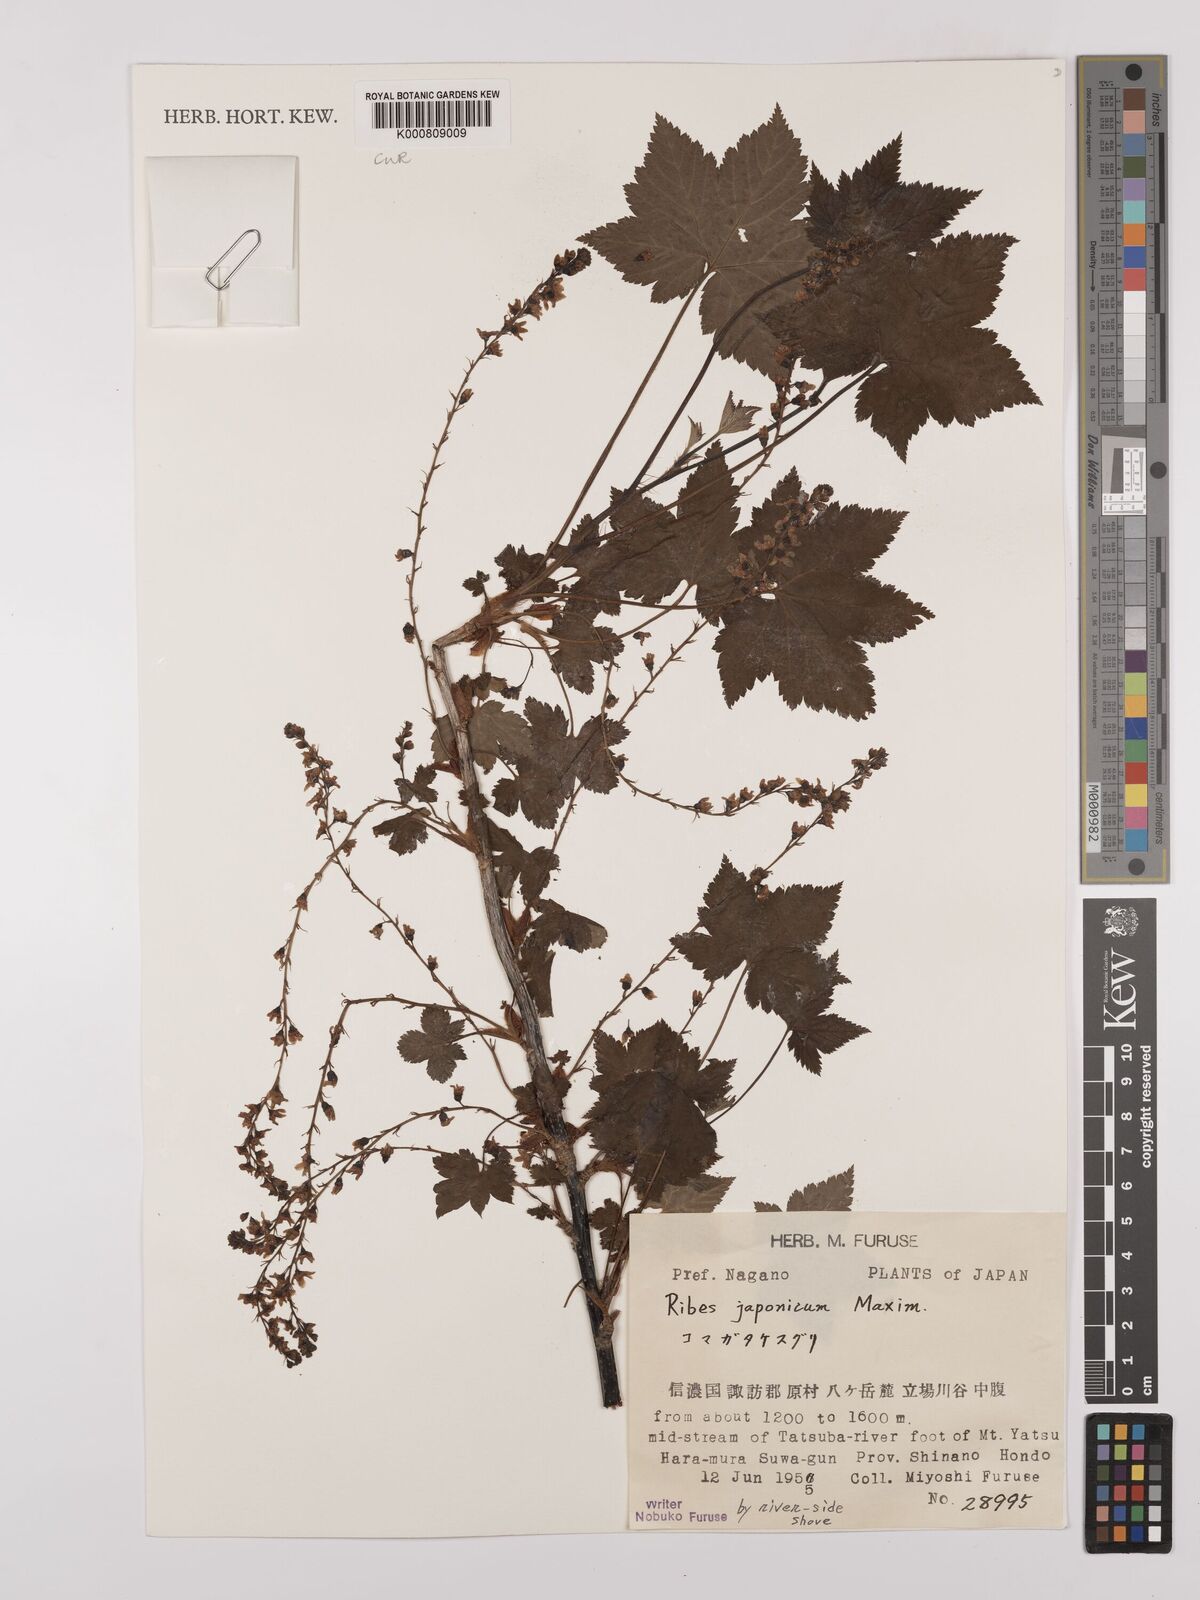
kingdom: Plantae
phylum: Tracheophyta
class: Magnoliopsida
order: Saxifragales
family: Grossulariaceae
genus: Ribes
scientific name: Ribes japonicum
